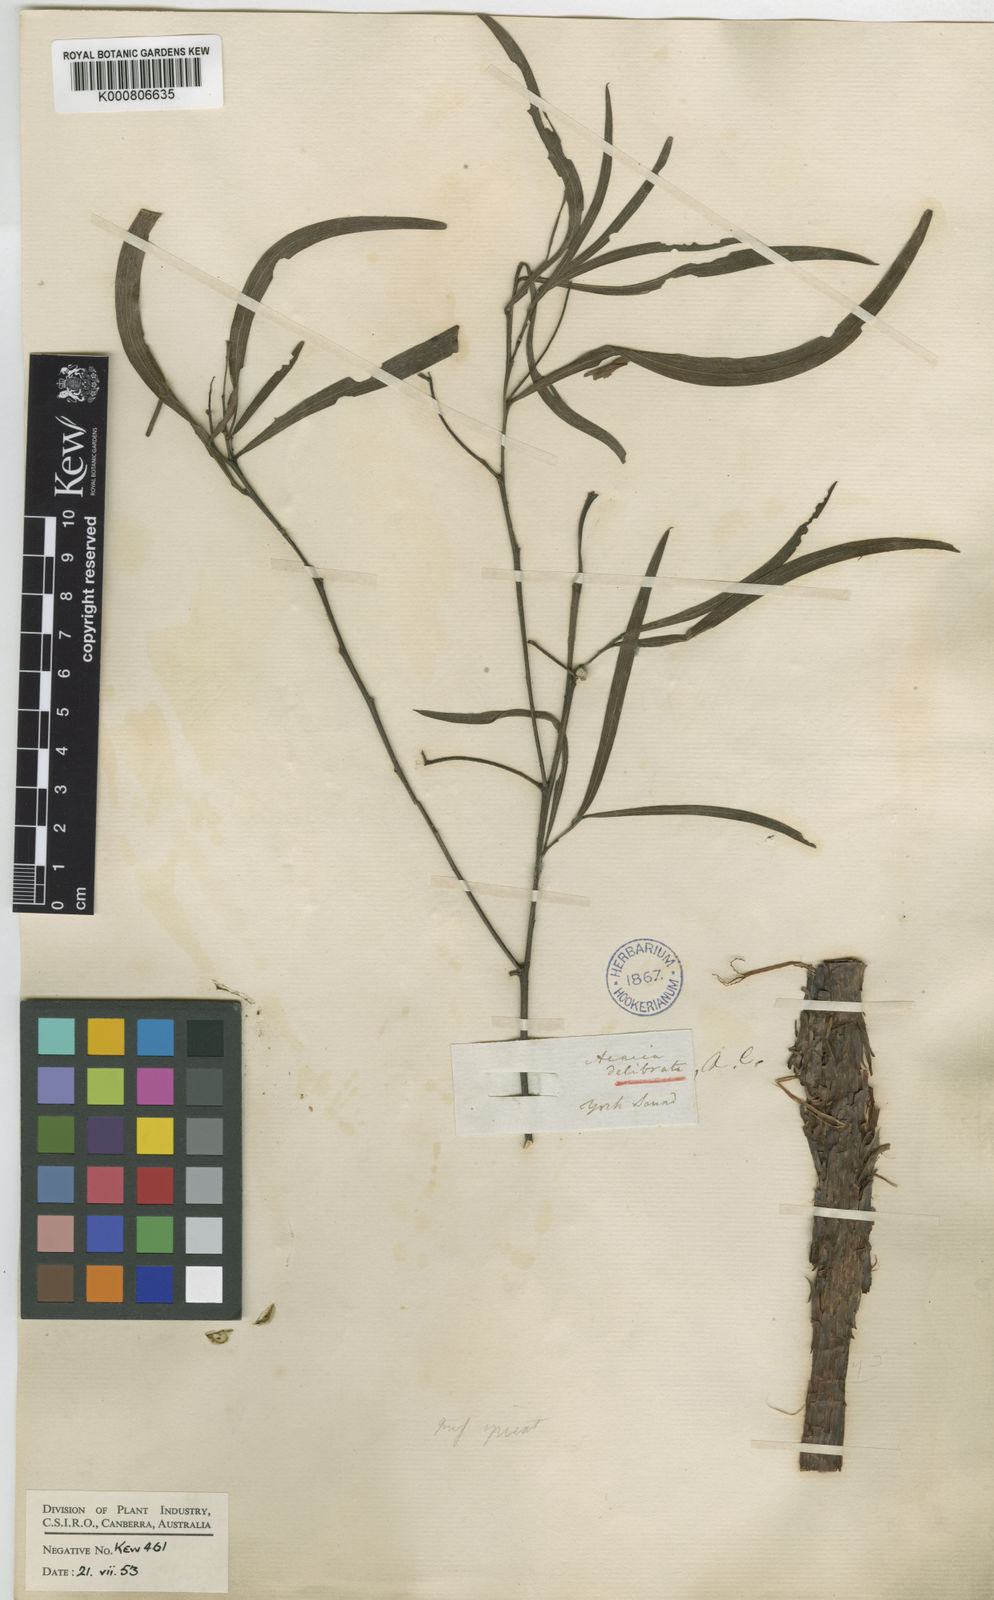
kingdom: Plantae
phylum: Tracheophyta
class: Magnoliopsida
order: Fabales
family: Fabaceae
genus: Acacia
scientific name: Acacia
